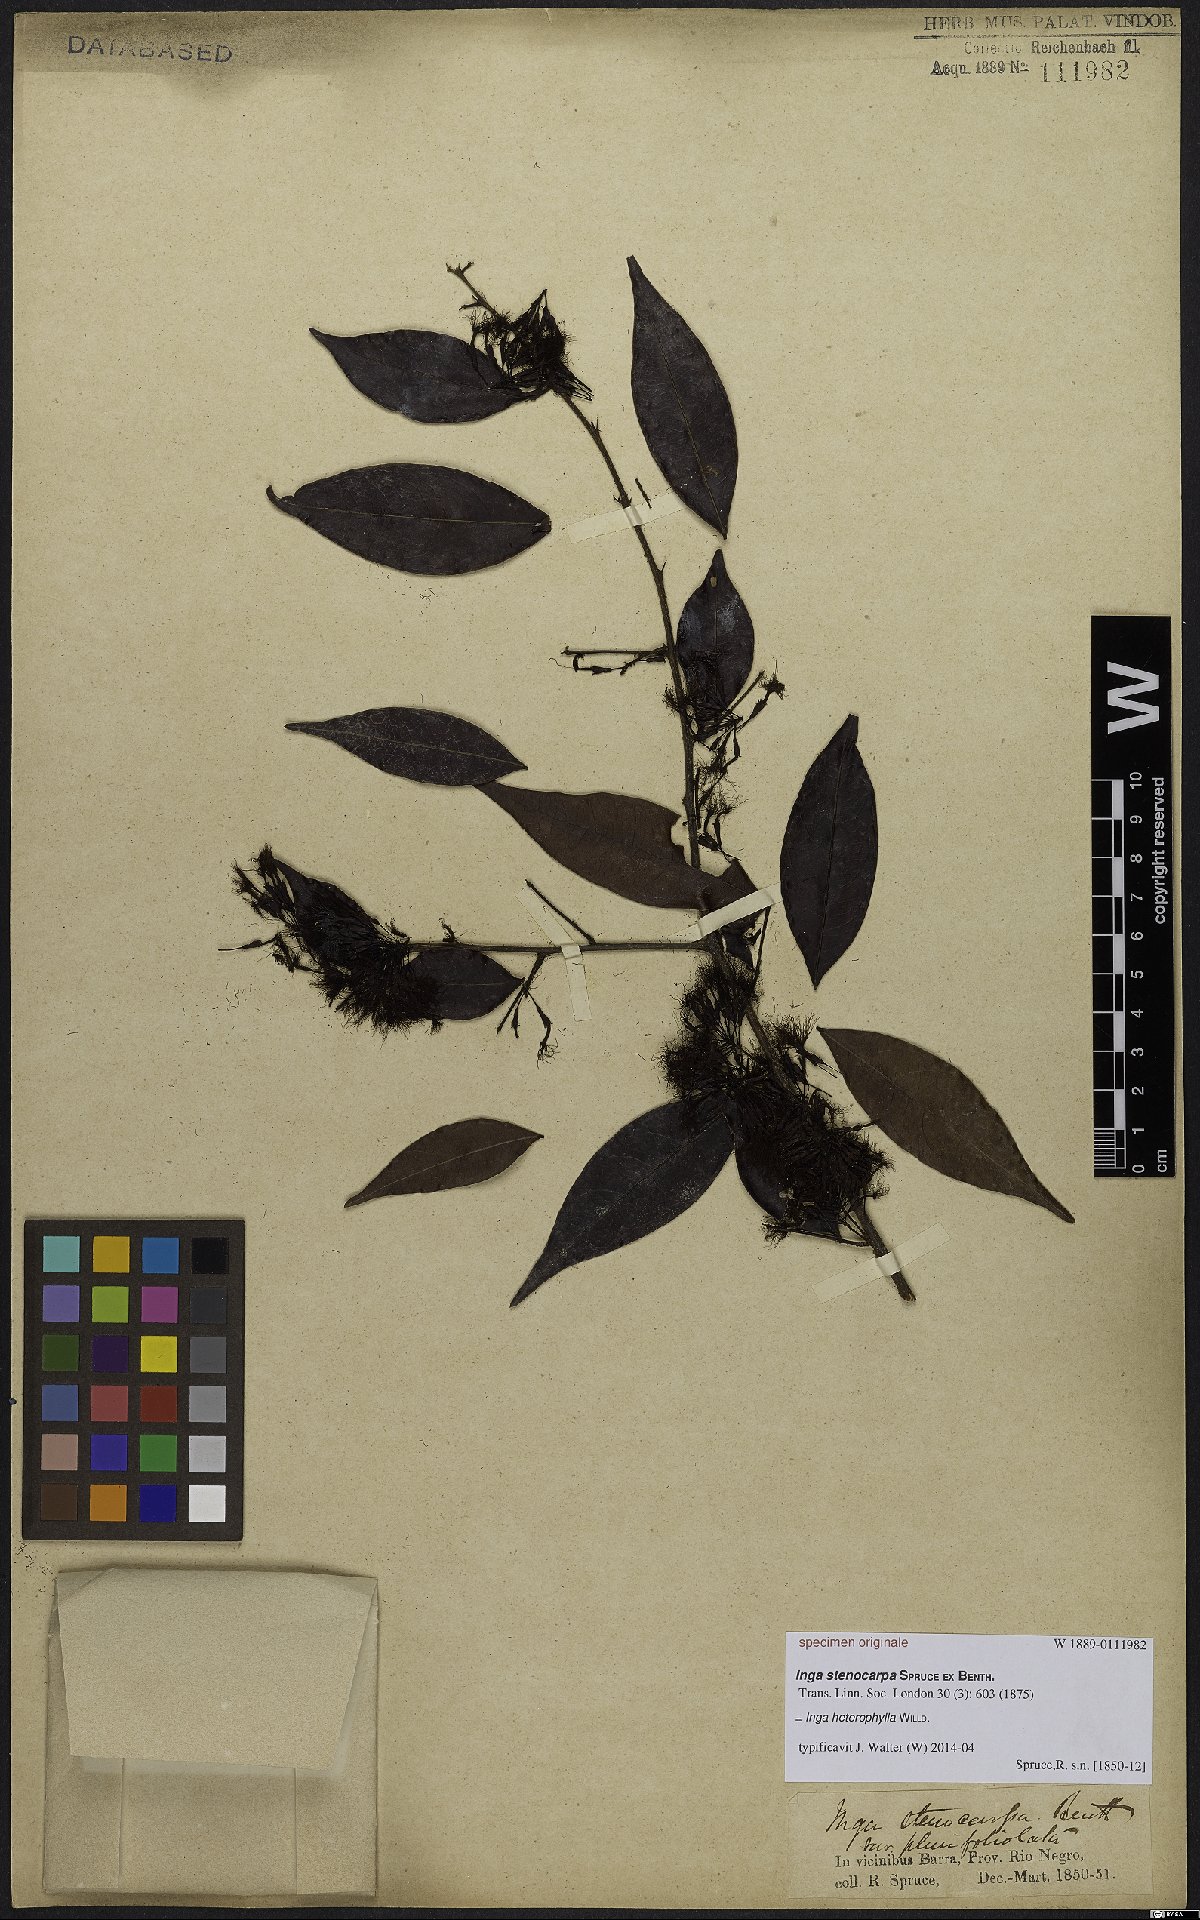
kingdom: Plantae
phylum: Tracheophyta
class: Magnoliopsida
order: Fabales
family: Fabaceae
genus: Inga
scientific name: Inga heterophylla
